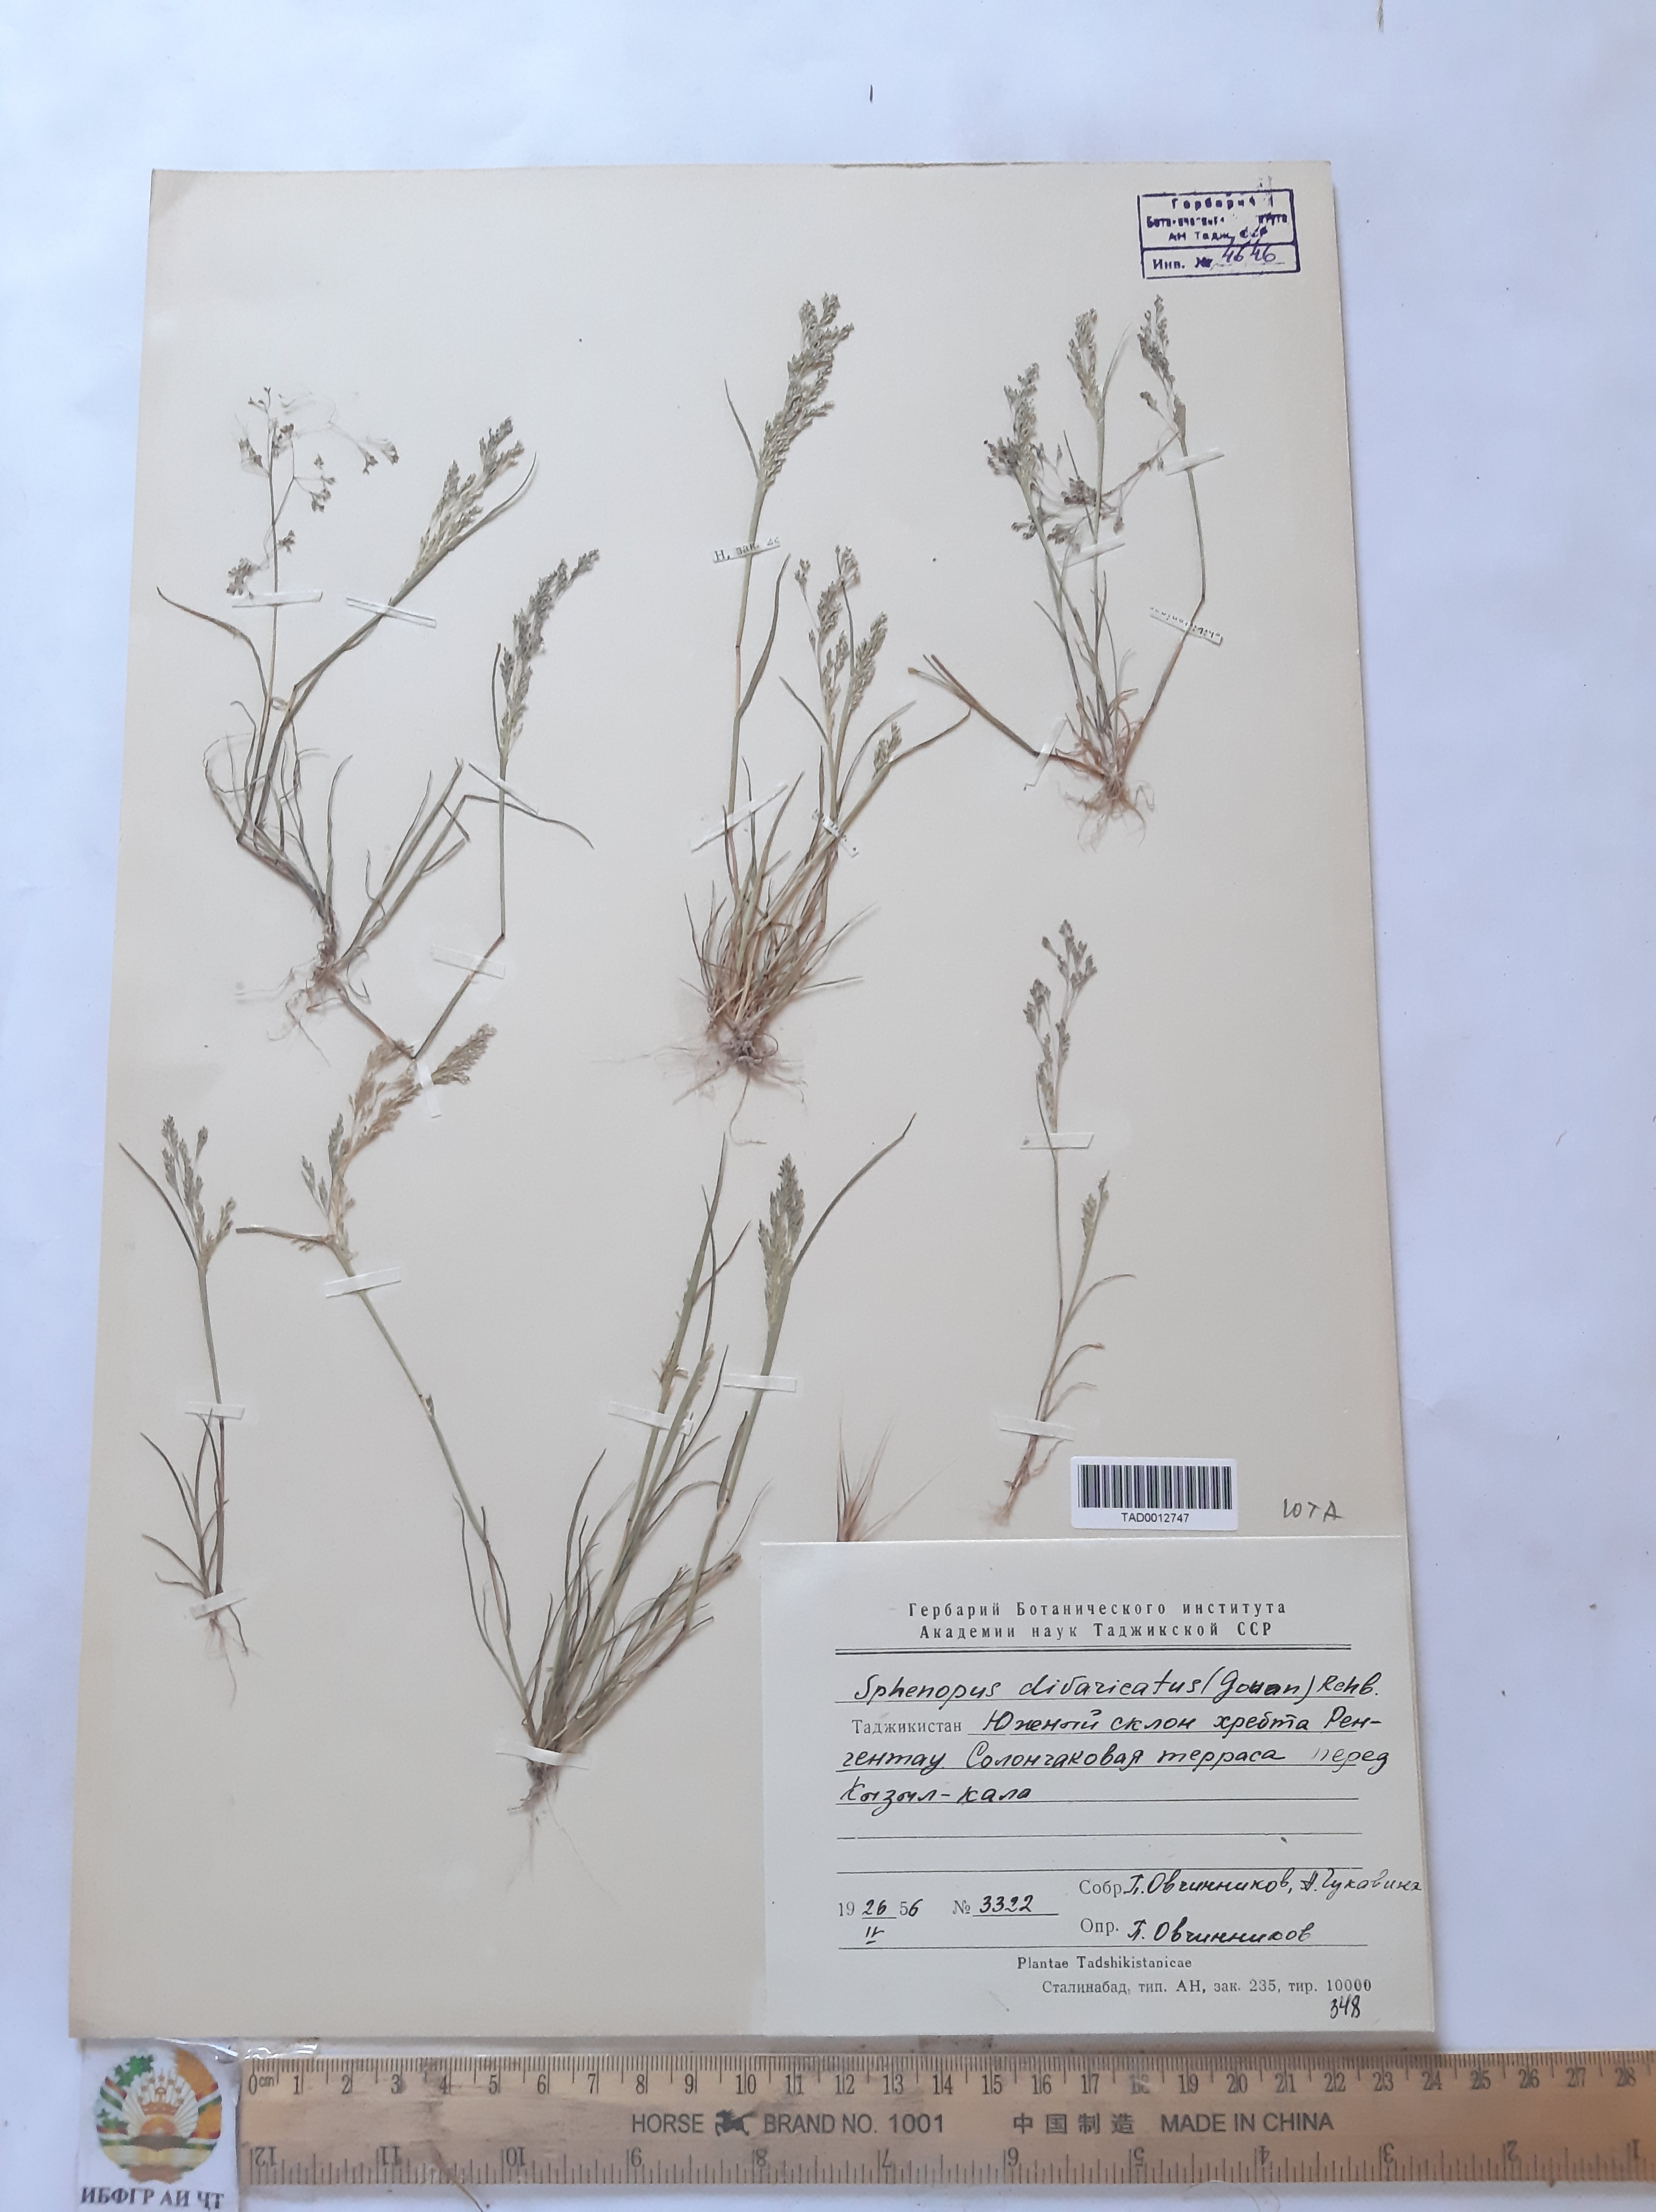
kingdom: Plantae
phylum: Tracheophyta
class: Liliopsida
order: Poales
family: Poaceae
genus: Sphenopus
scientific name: Sphenopus divaricatus
